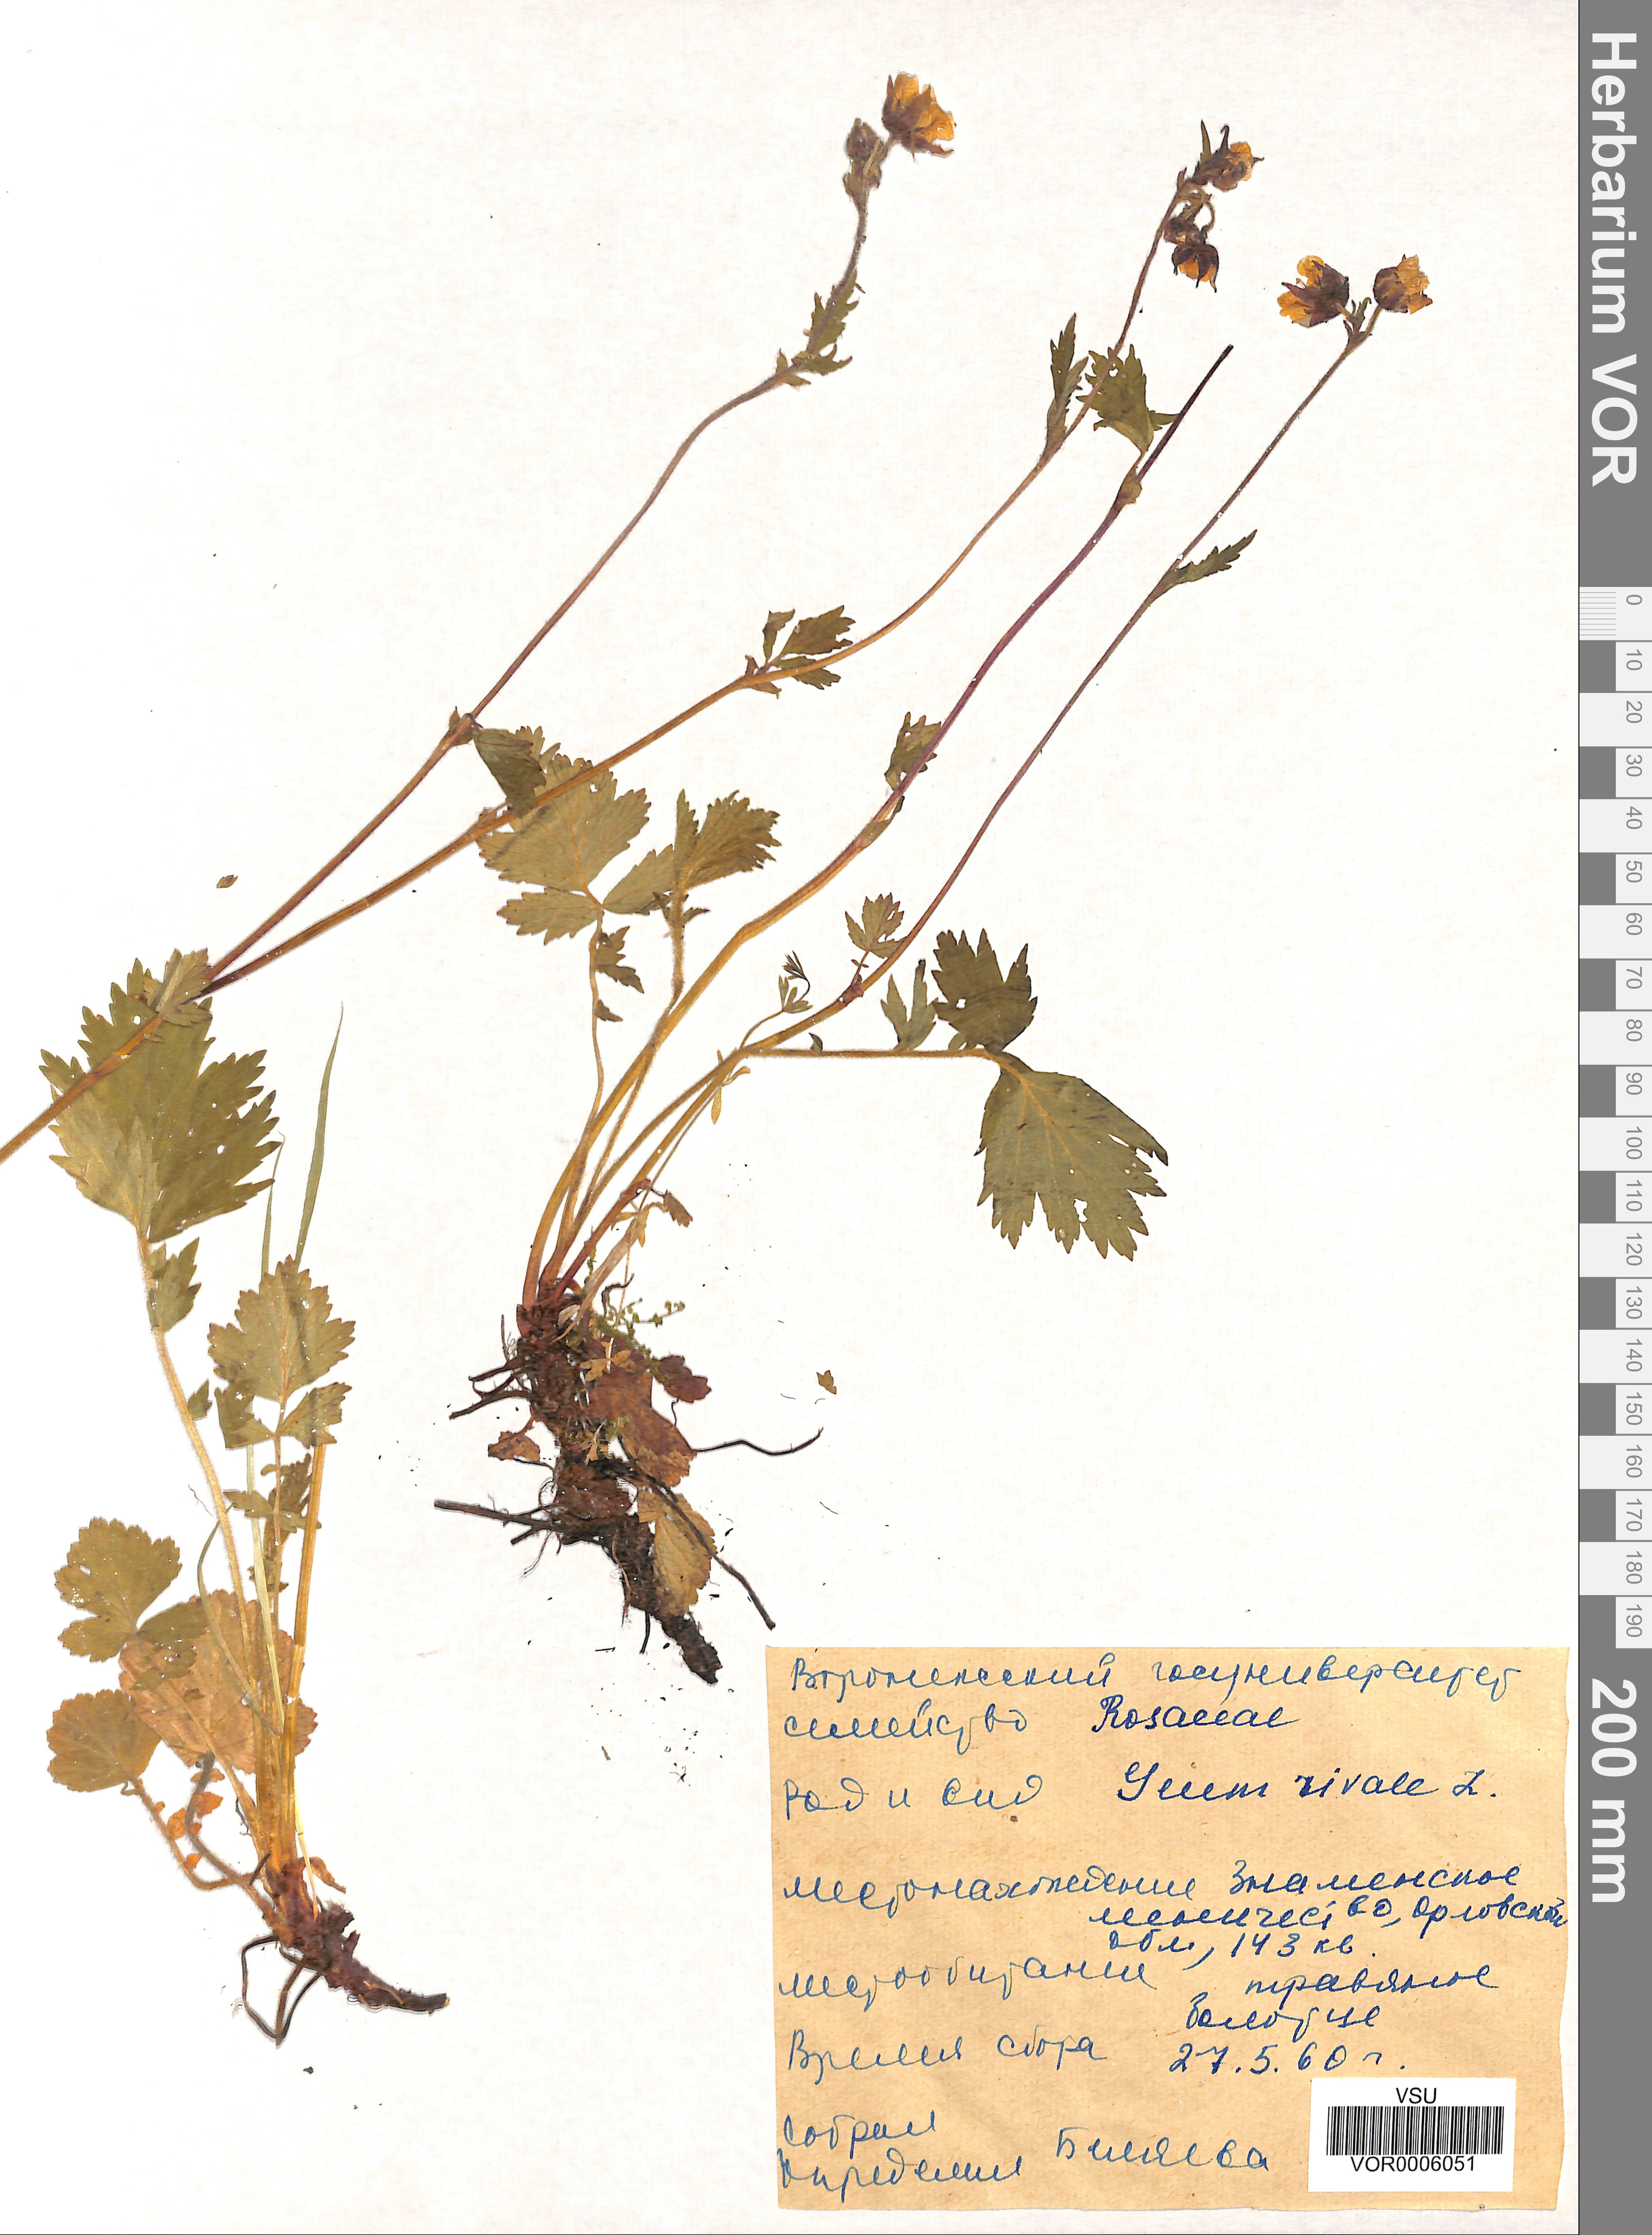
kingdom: Plantae
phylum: Tracheophyta
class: Magnoliopsida
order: Rosales
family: Rosaceae
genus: Geum
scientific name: Geum rivale
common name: Water avens
